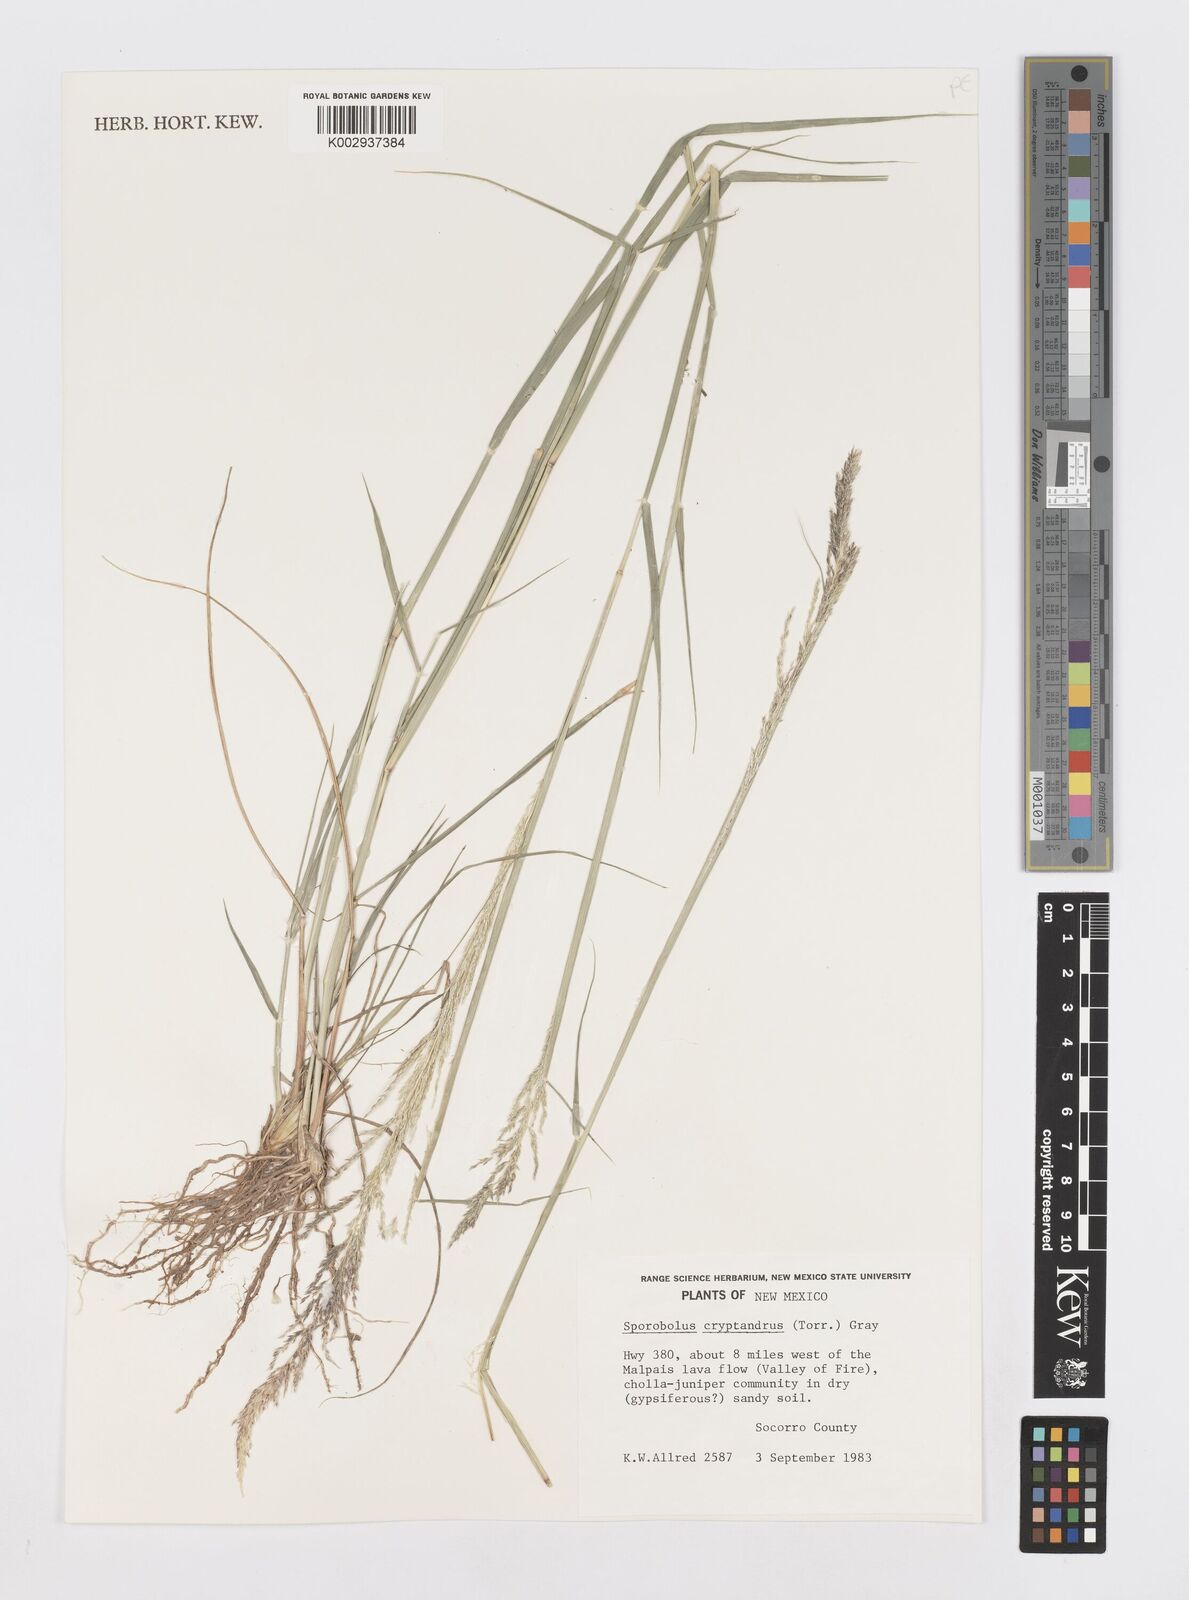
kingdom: Plantae
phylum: Tracheophyta
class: Liliopsida
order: Poales
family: Poaceae
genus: Sporobolus
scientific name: Sporobolus cryptandrus
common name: Sand dropseed
